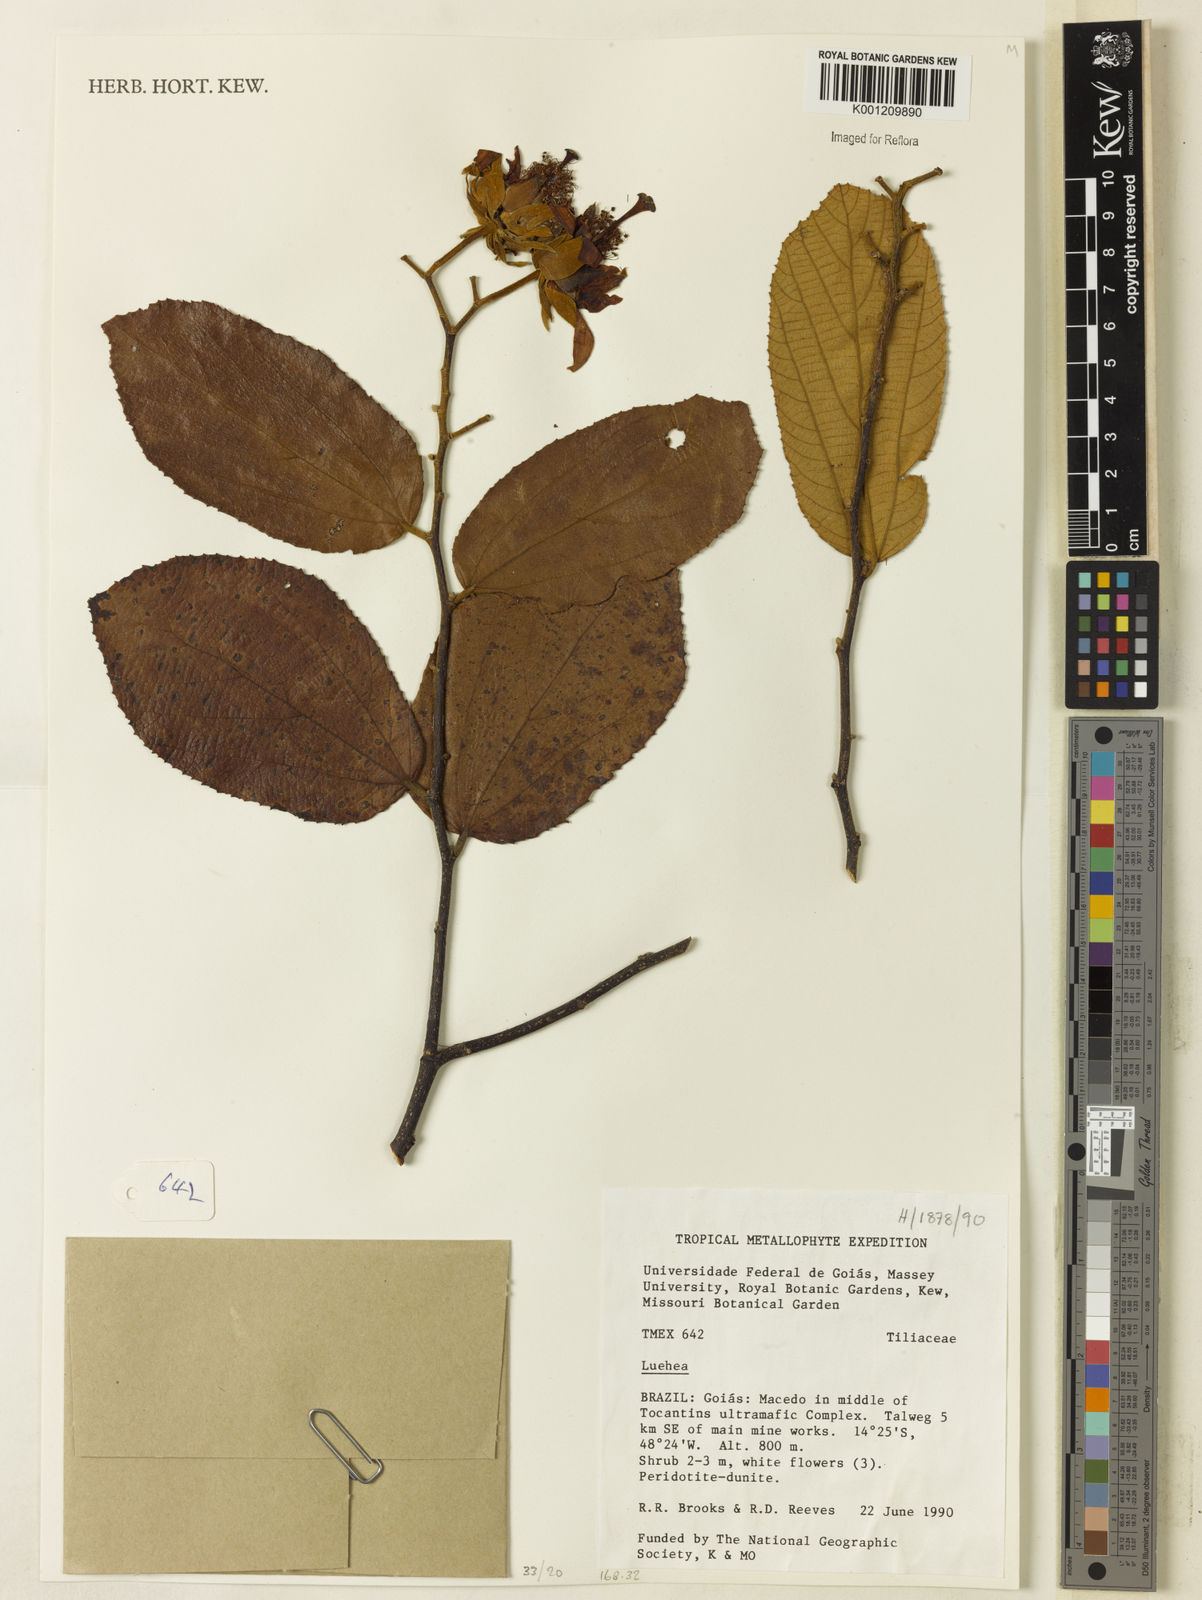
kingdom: Plantae
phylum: Tracheophyta
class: Magnoliopsida
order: Malvales
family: Malvaceae
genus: Luehea
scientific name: Luehea
